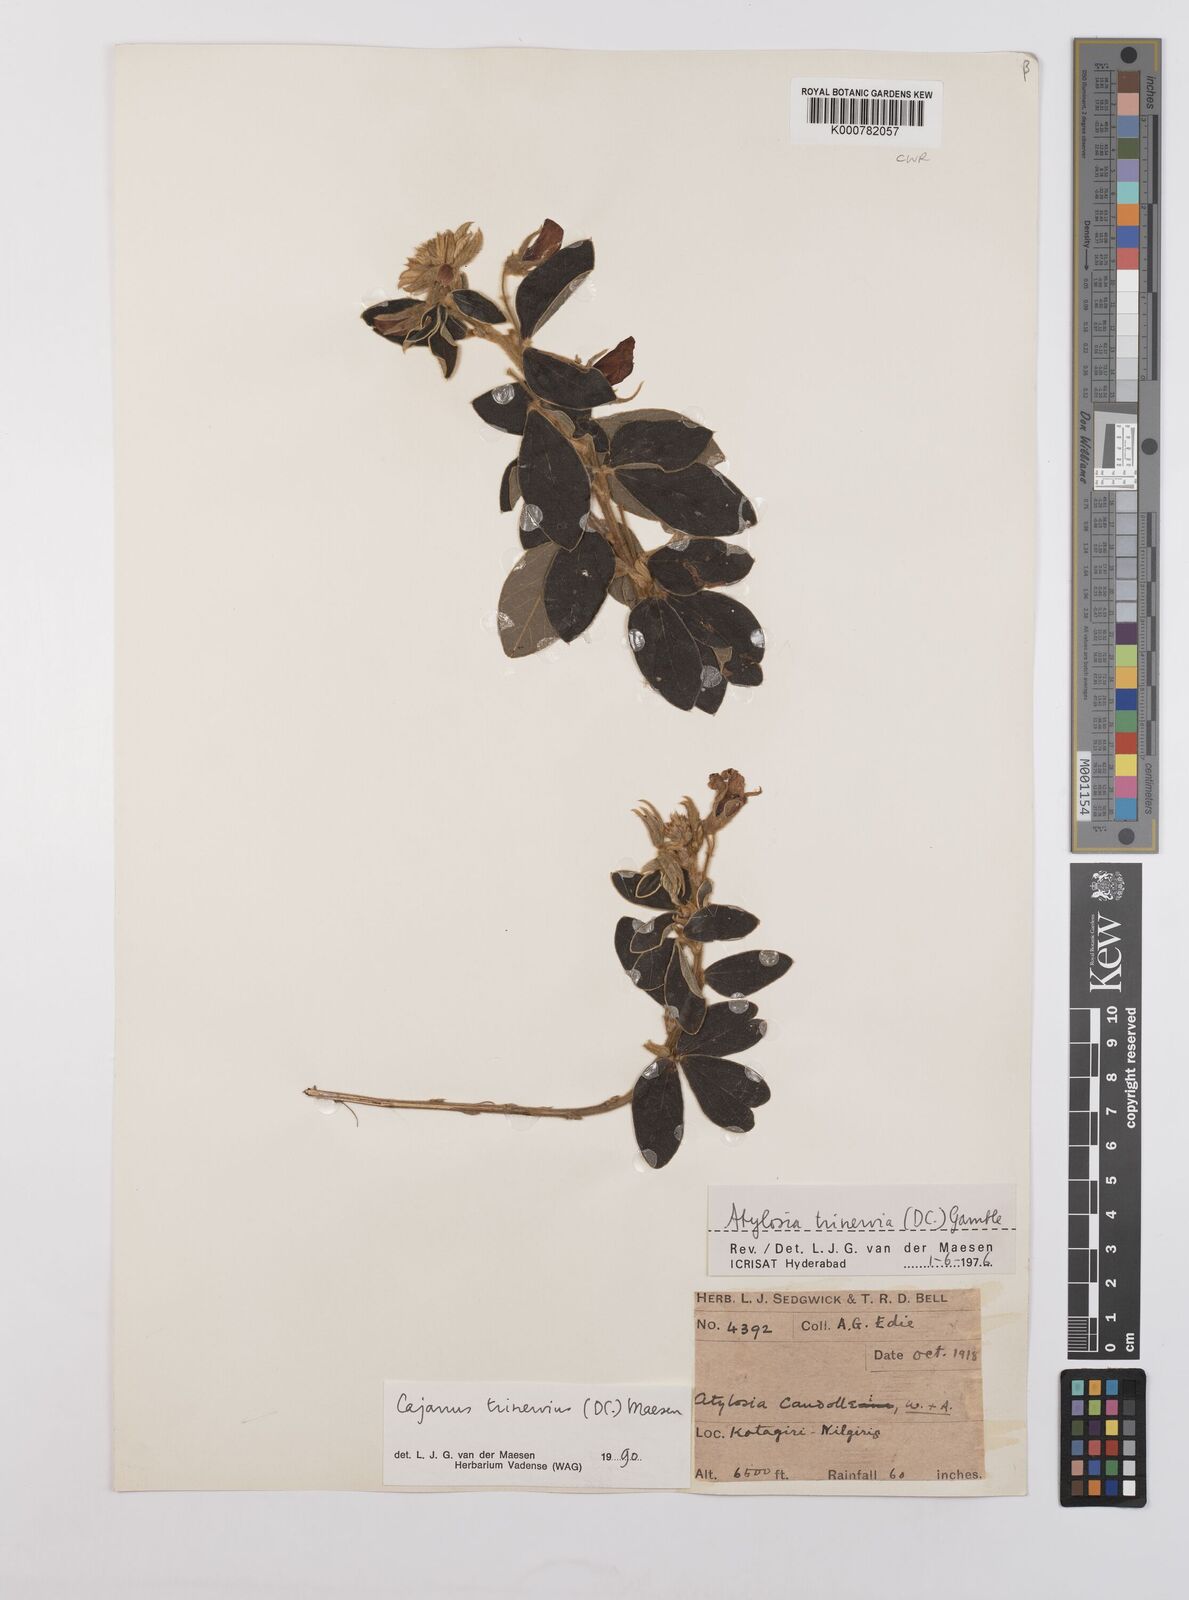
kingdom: Plantae
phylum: Tracheophyta
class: Magnoliopsida
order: Fabales
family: Fabaceae
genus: Cajanus
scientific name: Cajanus trinervius
